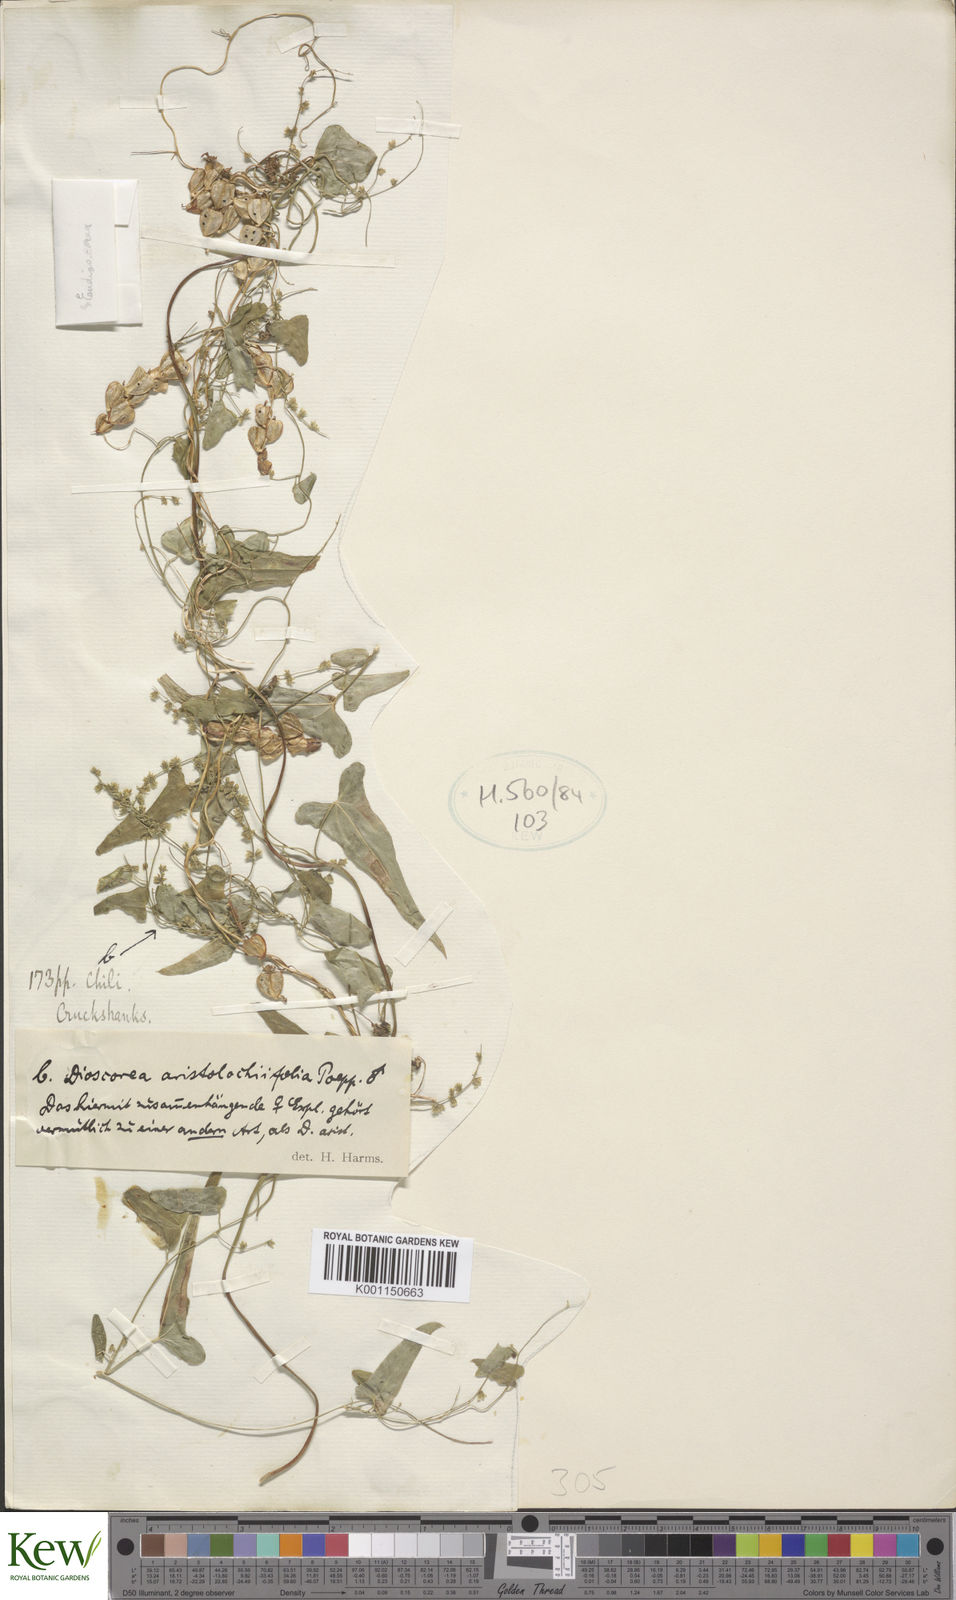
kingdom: Plantae
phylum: Tracheophyta
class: Liliopsida
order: Dioscoreales
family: Dioscoreaceae
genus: Dioscorea
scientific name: Dioscorea aristolochiifolia
